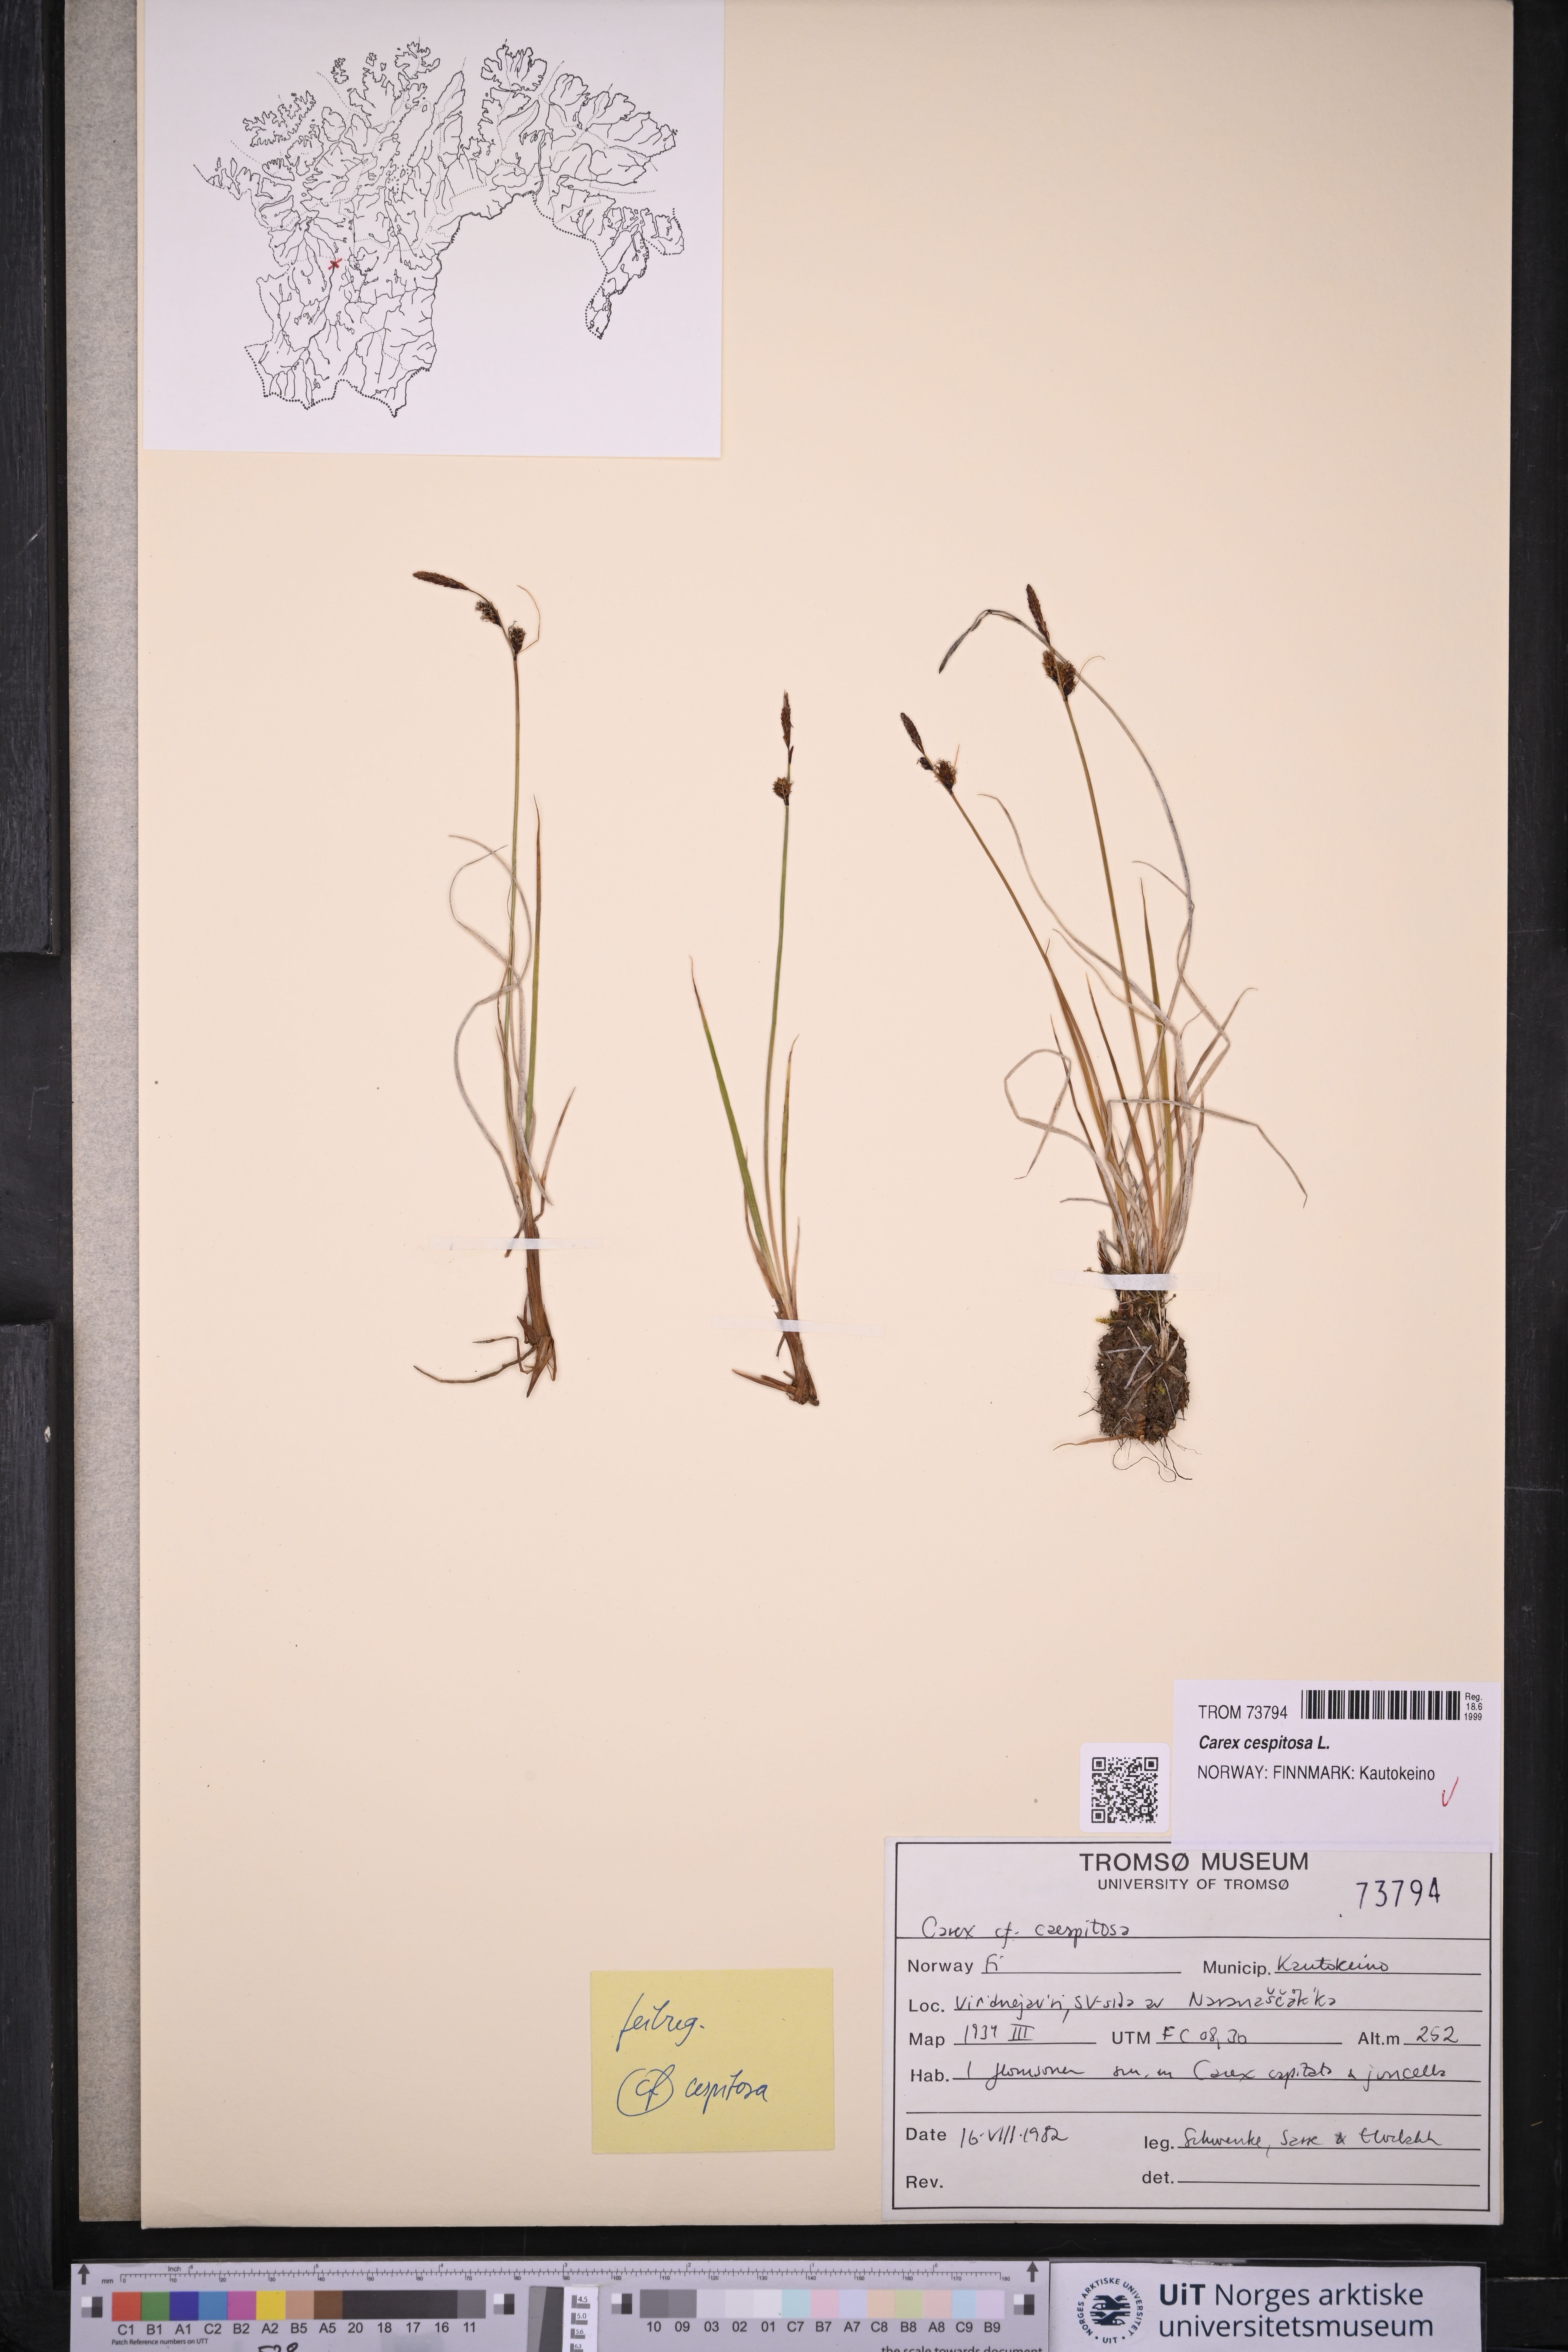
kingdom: Plantae
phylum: Tracheophyta
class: Liliopsida
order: Poales
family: Cyperaceae
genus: Carex
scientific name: Carex cespitosa
